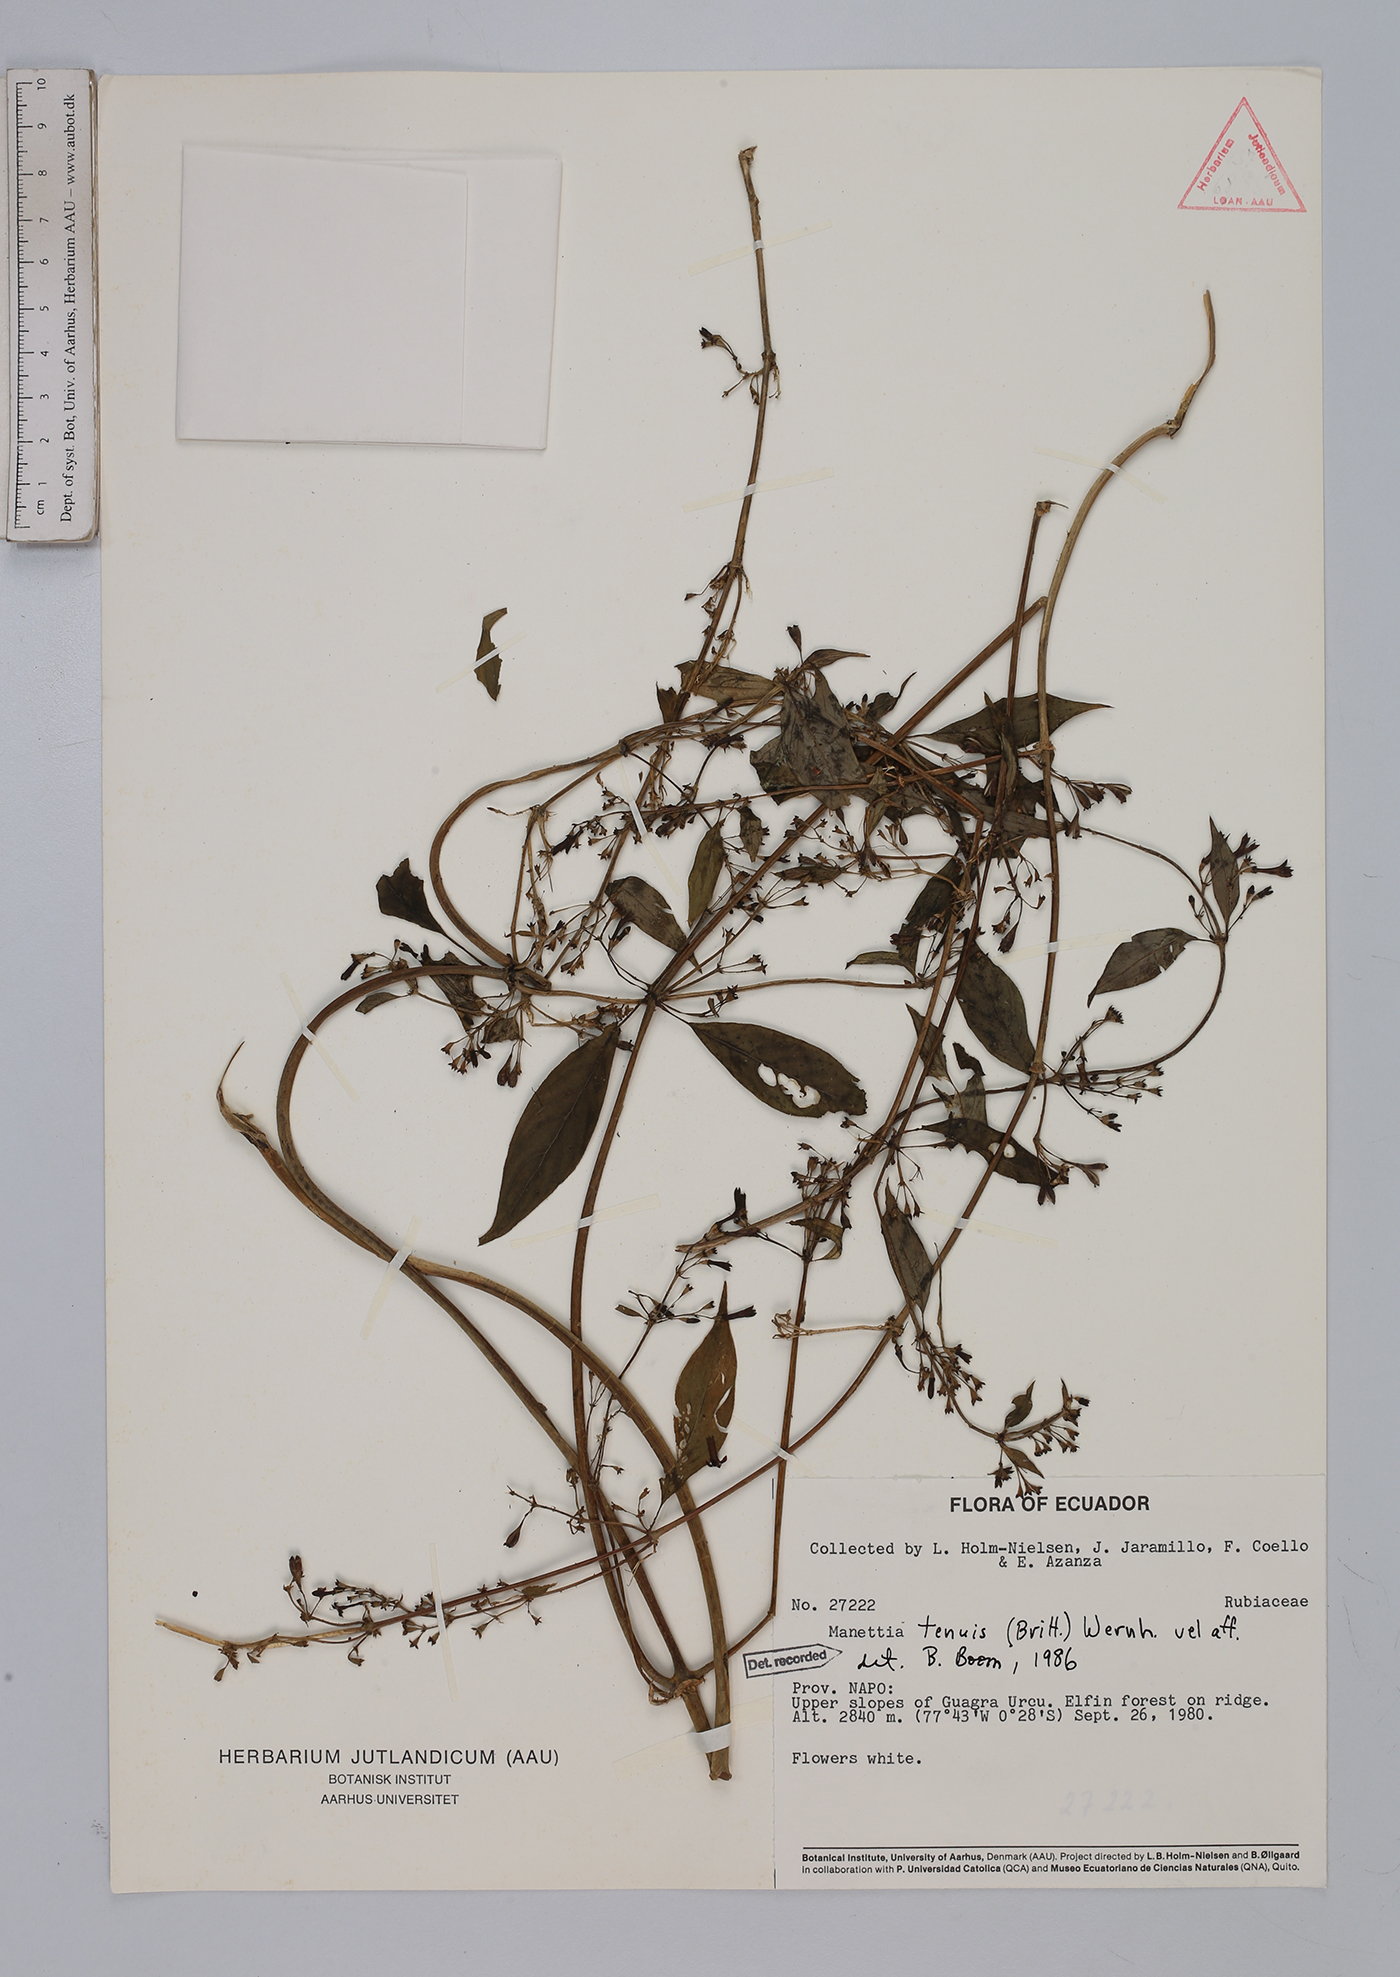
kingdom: Plantae
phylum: Tracheophyta
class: Magnoliopsida
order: Gentianales
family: Rubiaceae
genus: Manettia
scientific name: Manettia tenuis
